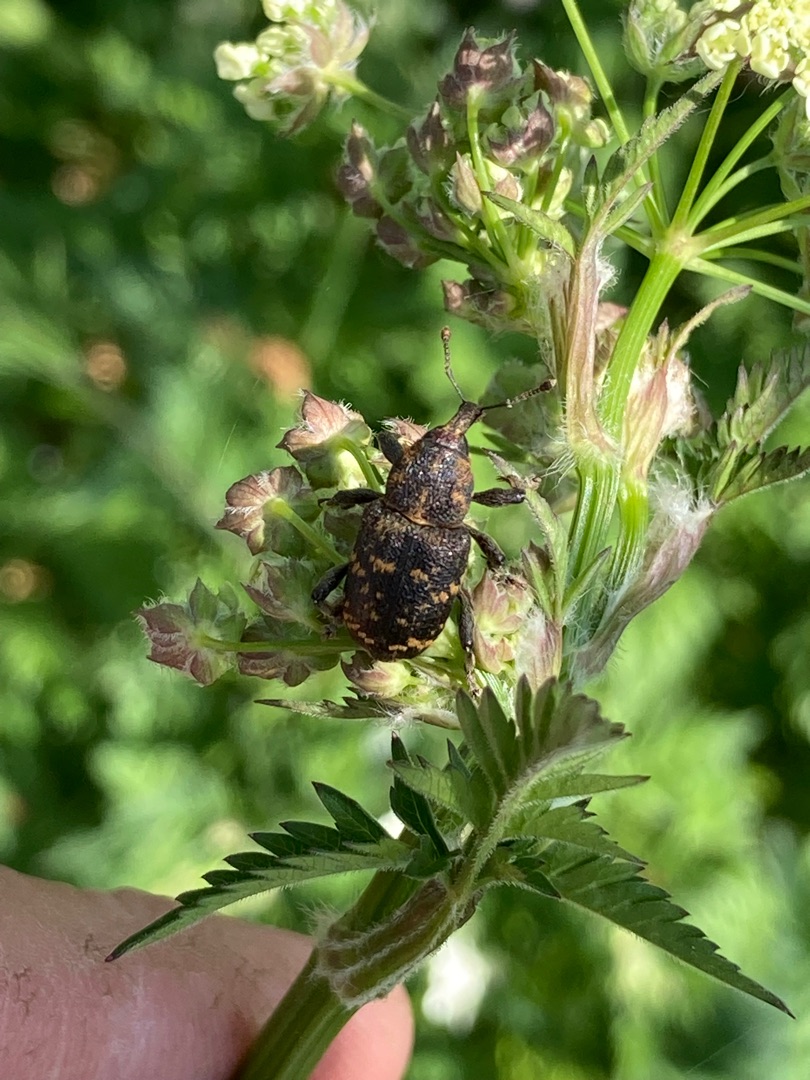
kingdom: Animalia
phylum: Arthropoda
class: Insecta
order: Coleoptera
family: Curculionidae
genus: Hylobius
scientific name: Hylobius abietis
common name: Stor nåletræsnudebille
